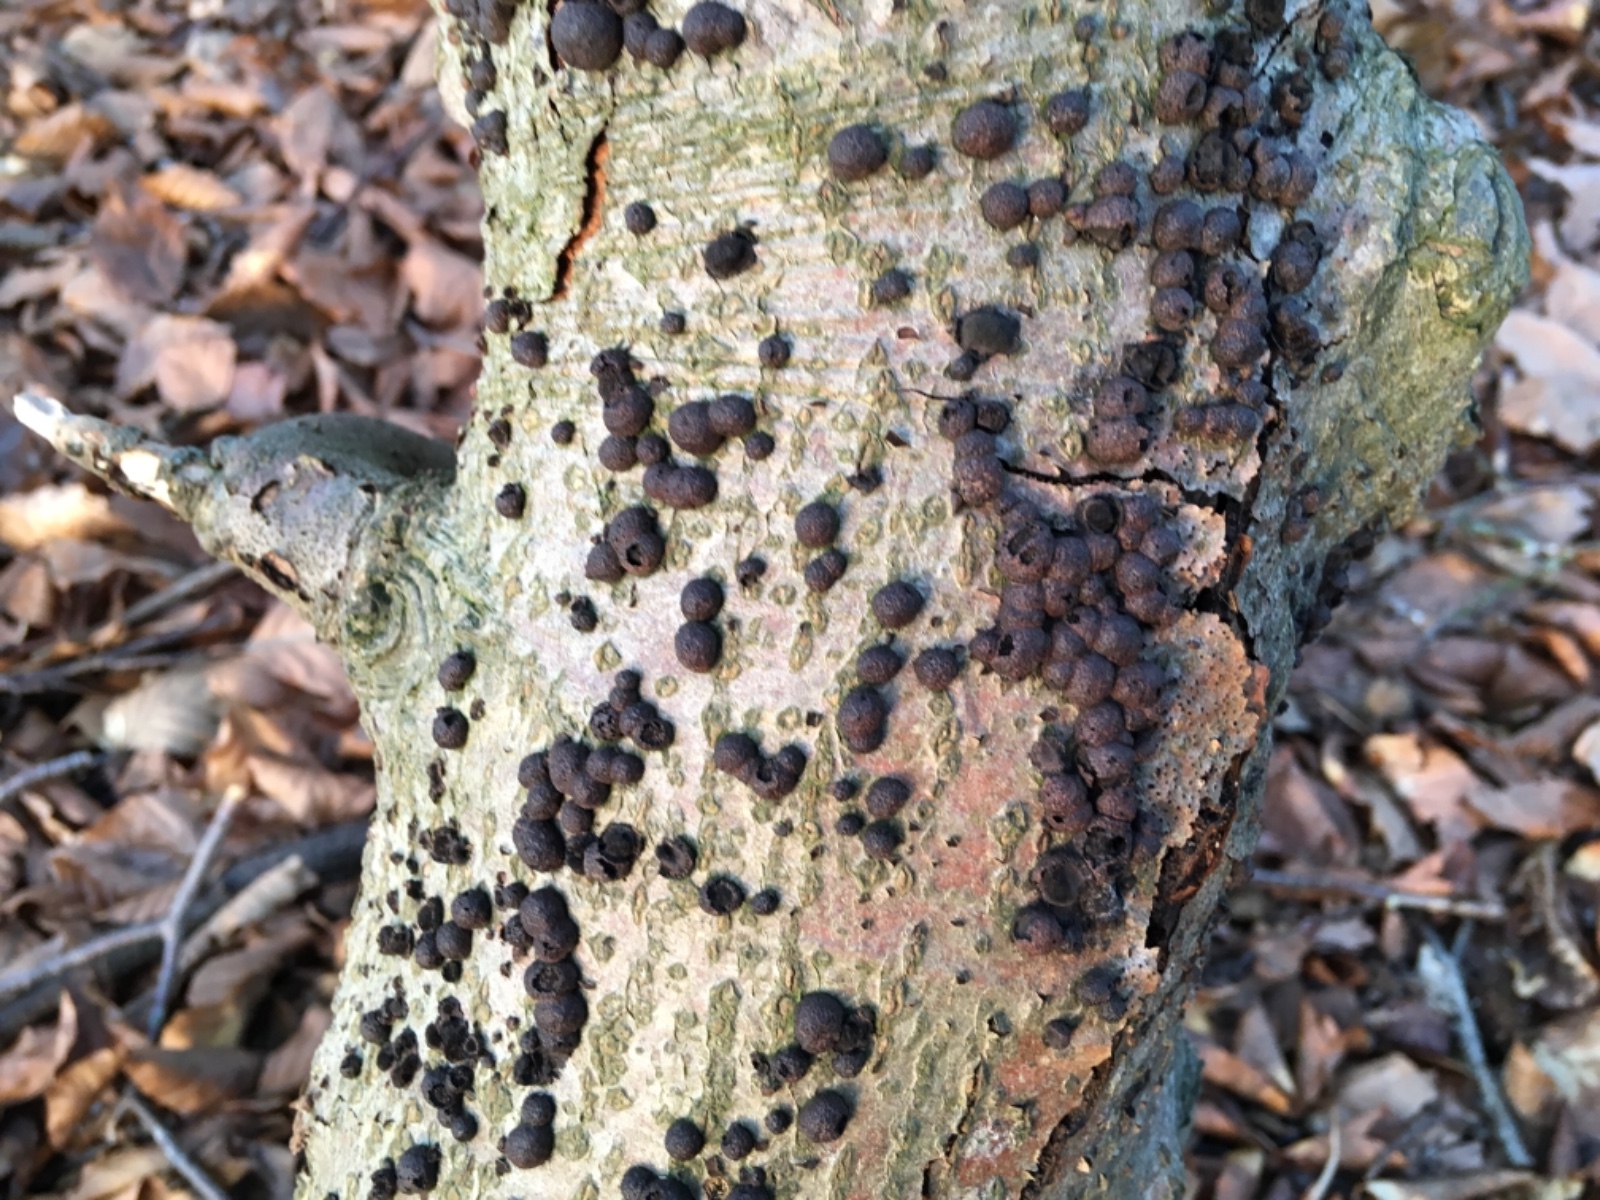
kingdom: Fungi
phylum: Ascomycota
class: Sordariomycetes
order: Xylariales
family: Hypoxylaceae
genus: Hypoxylon
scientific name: Hypoxylon fragiforme
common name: kuljordbær
